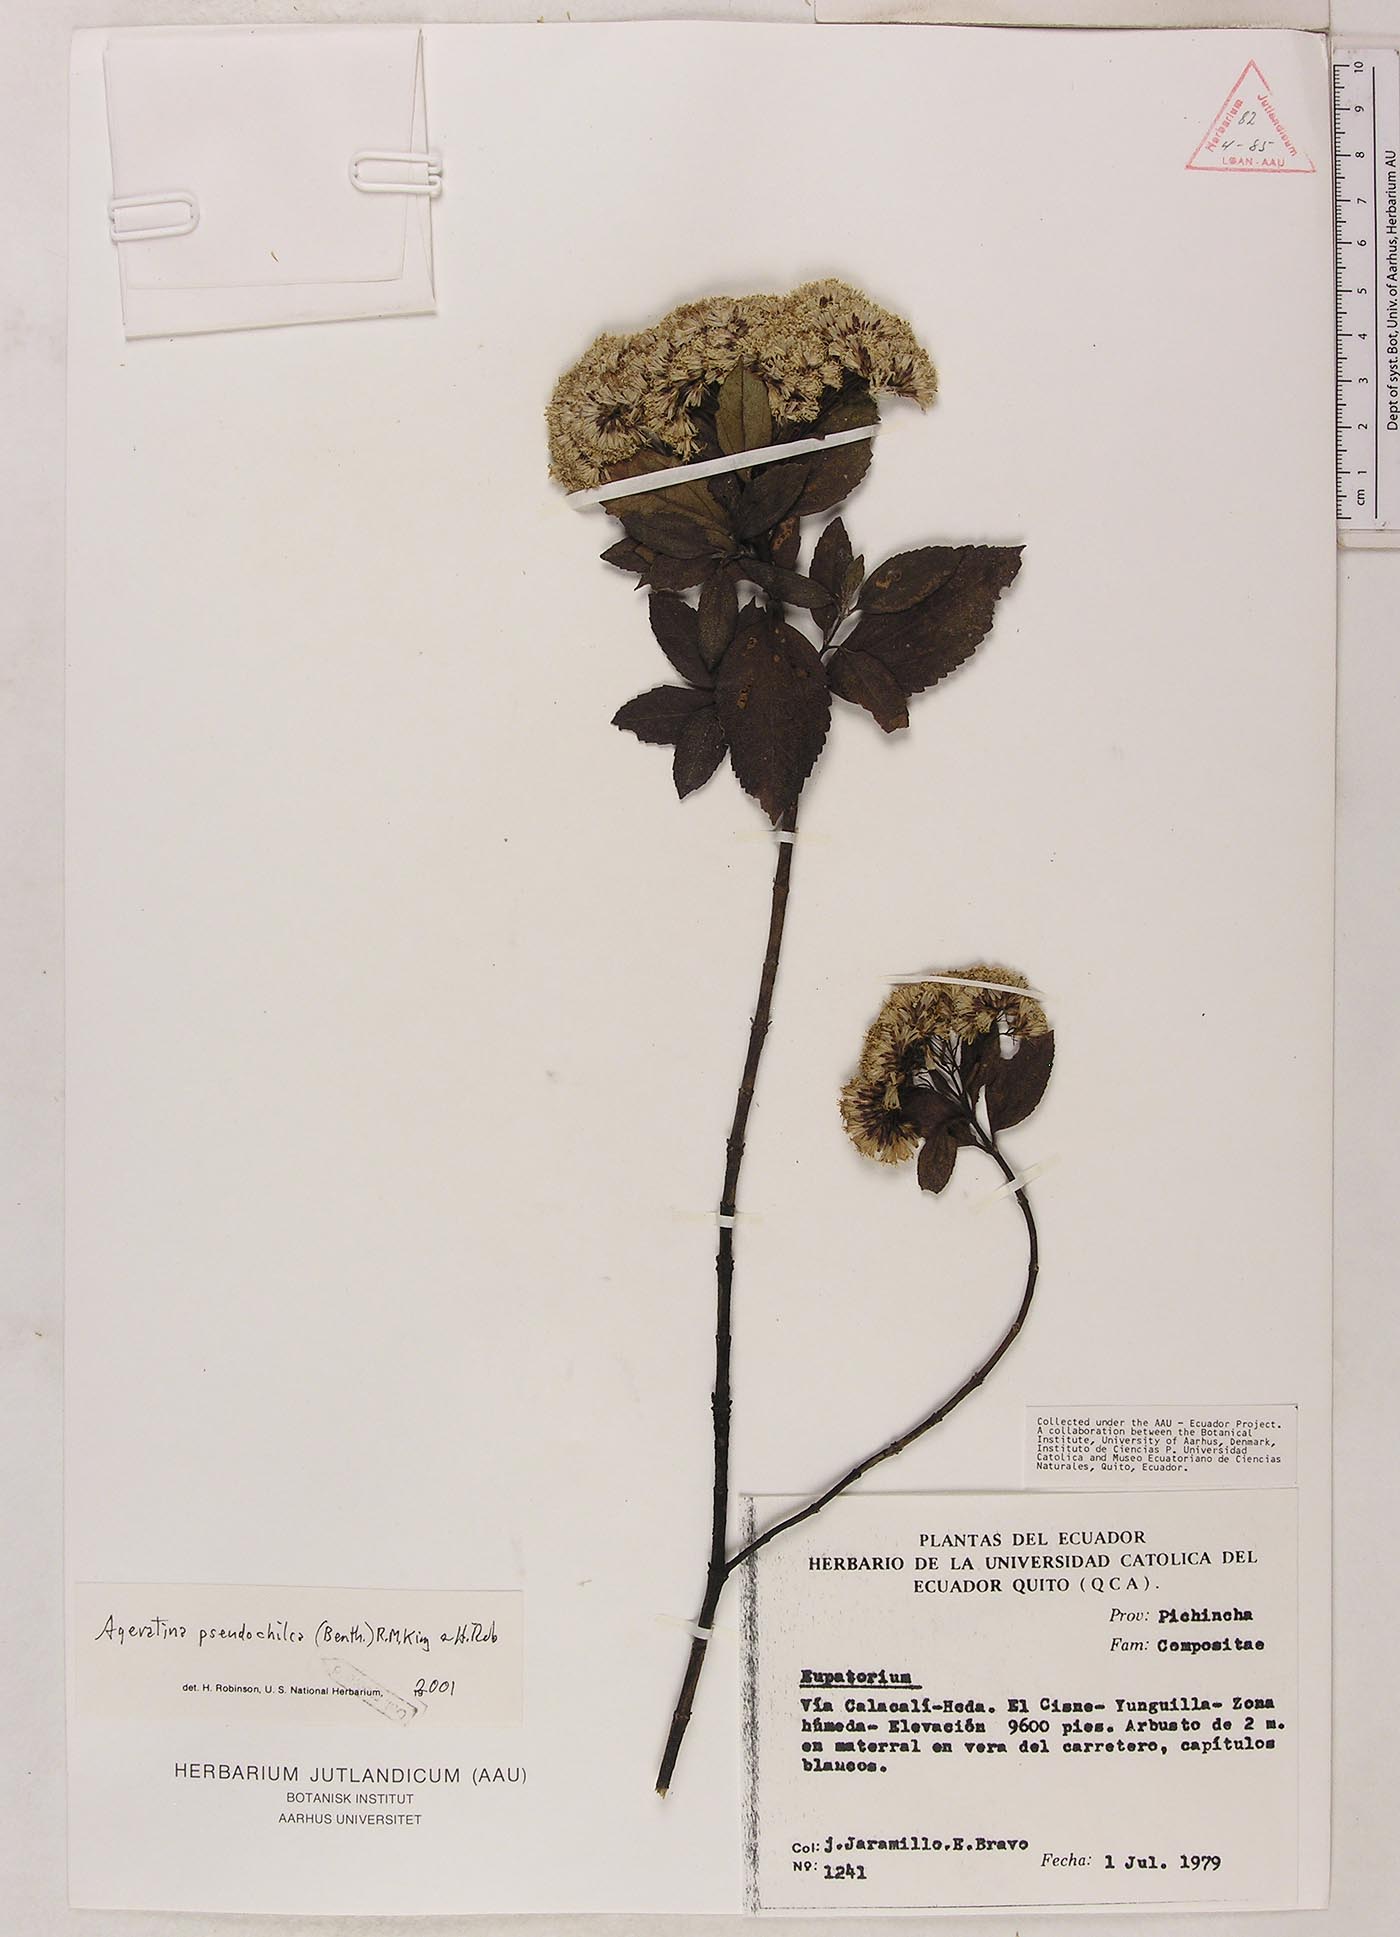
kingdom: Plantae
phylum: Tracheophyta
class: Magnoliopsida
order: Asterales
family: Asteraceae
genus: Ageratina
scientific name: Ageratina pseudochilca
